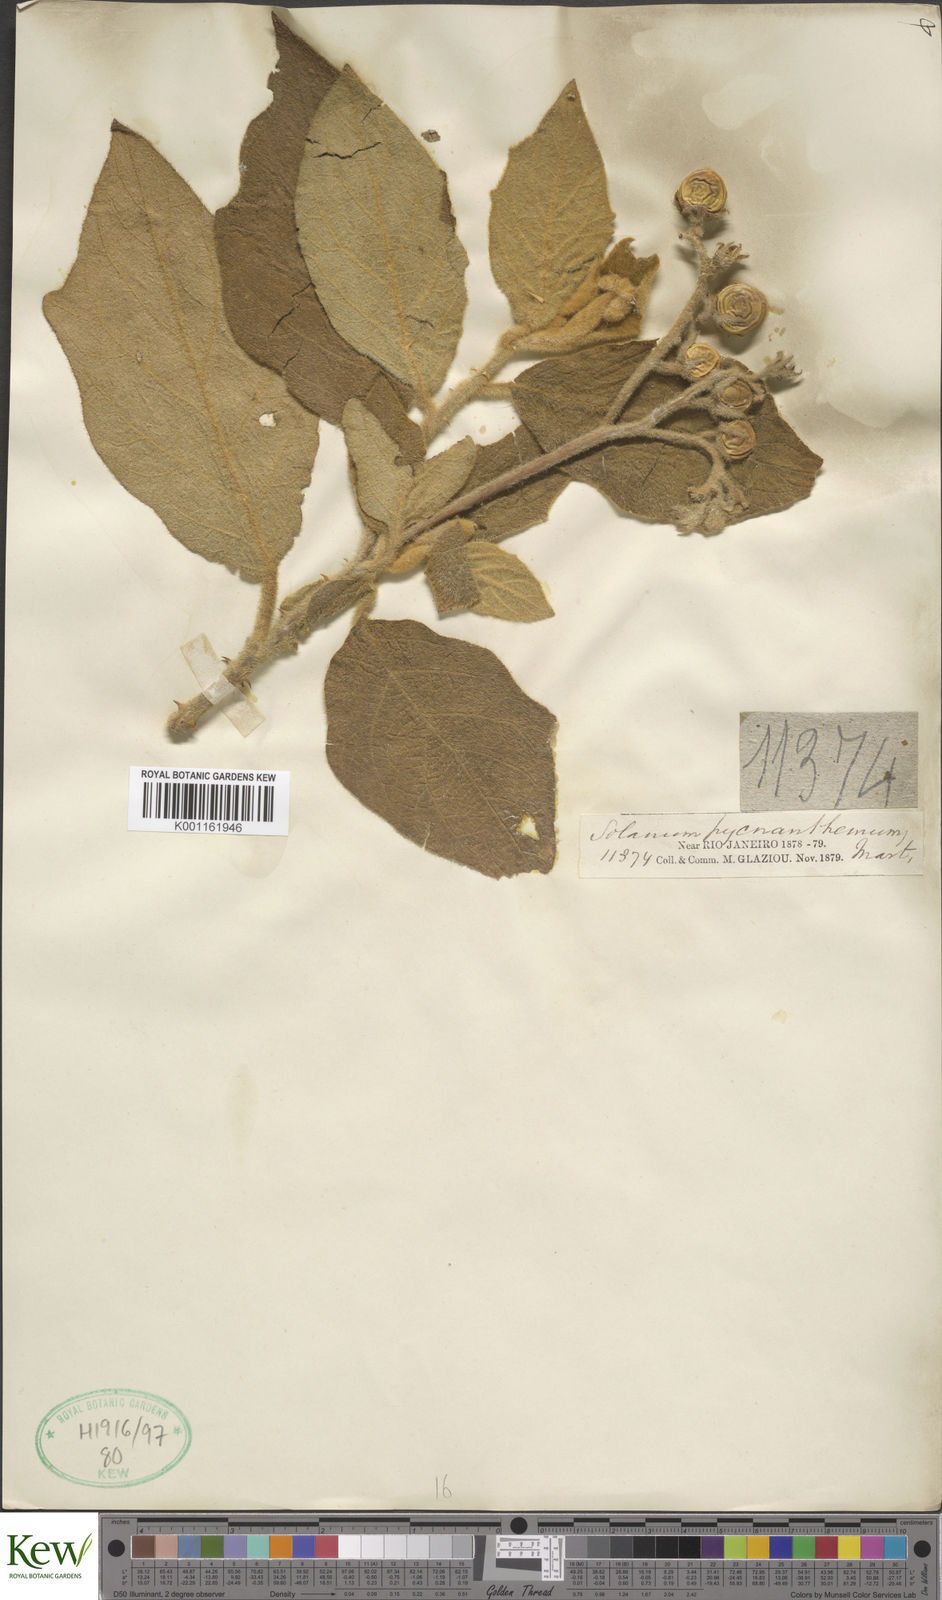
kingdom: Plantae
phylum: Tracheophyta
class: Magnoliopsida
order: Solanales
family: Solanaceae
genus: Solanum
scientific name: Solanum pseudoquina
